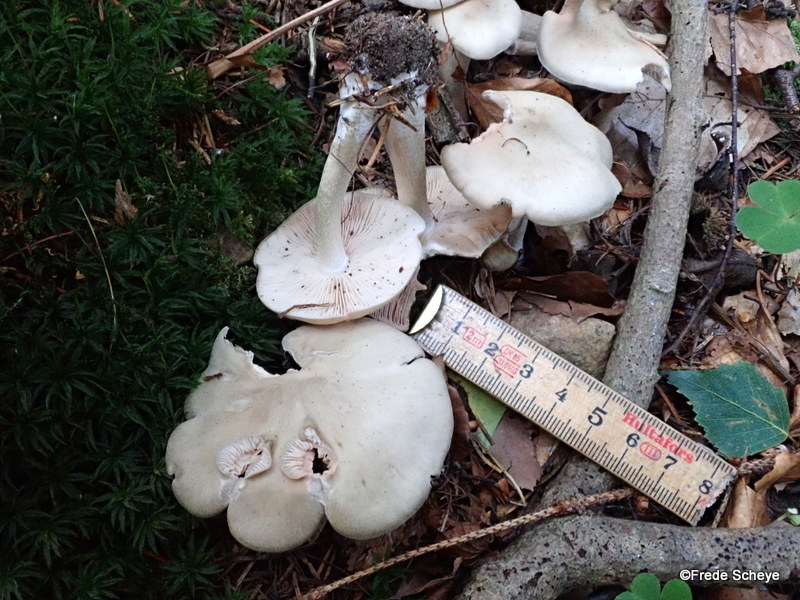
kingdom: Fungi
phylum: Basidiomycota
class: Agaricomycetes
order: Agaricales
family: Entolomataceae
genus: Entoloma
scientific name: Entoloma sericatum
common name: rank rødblad
